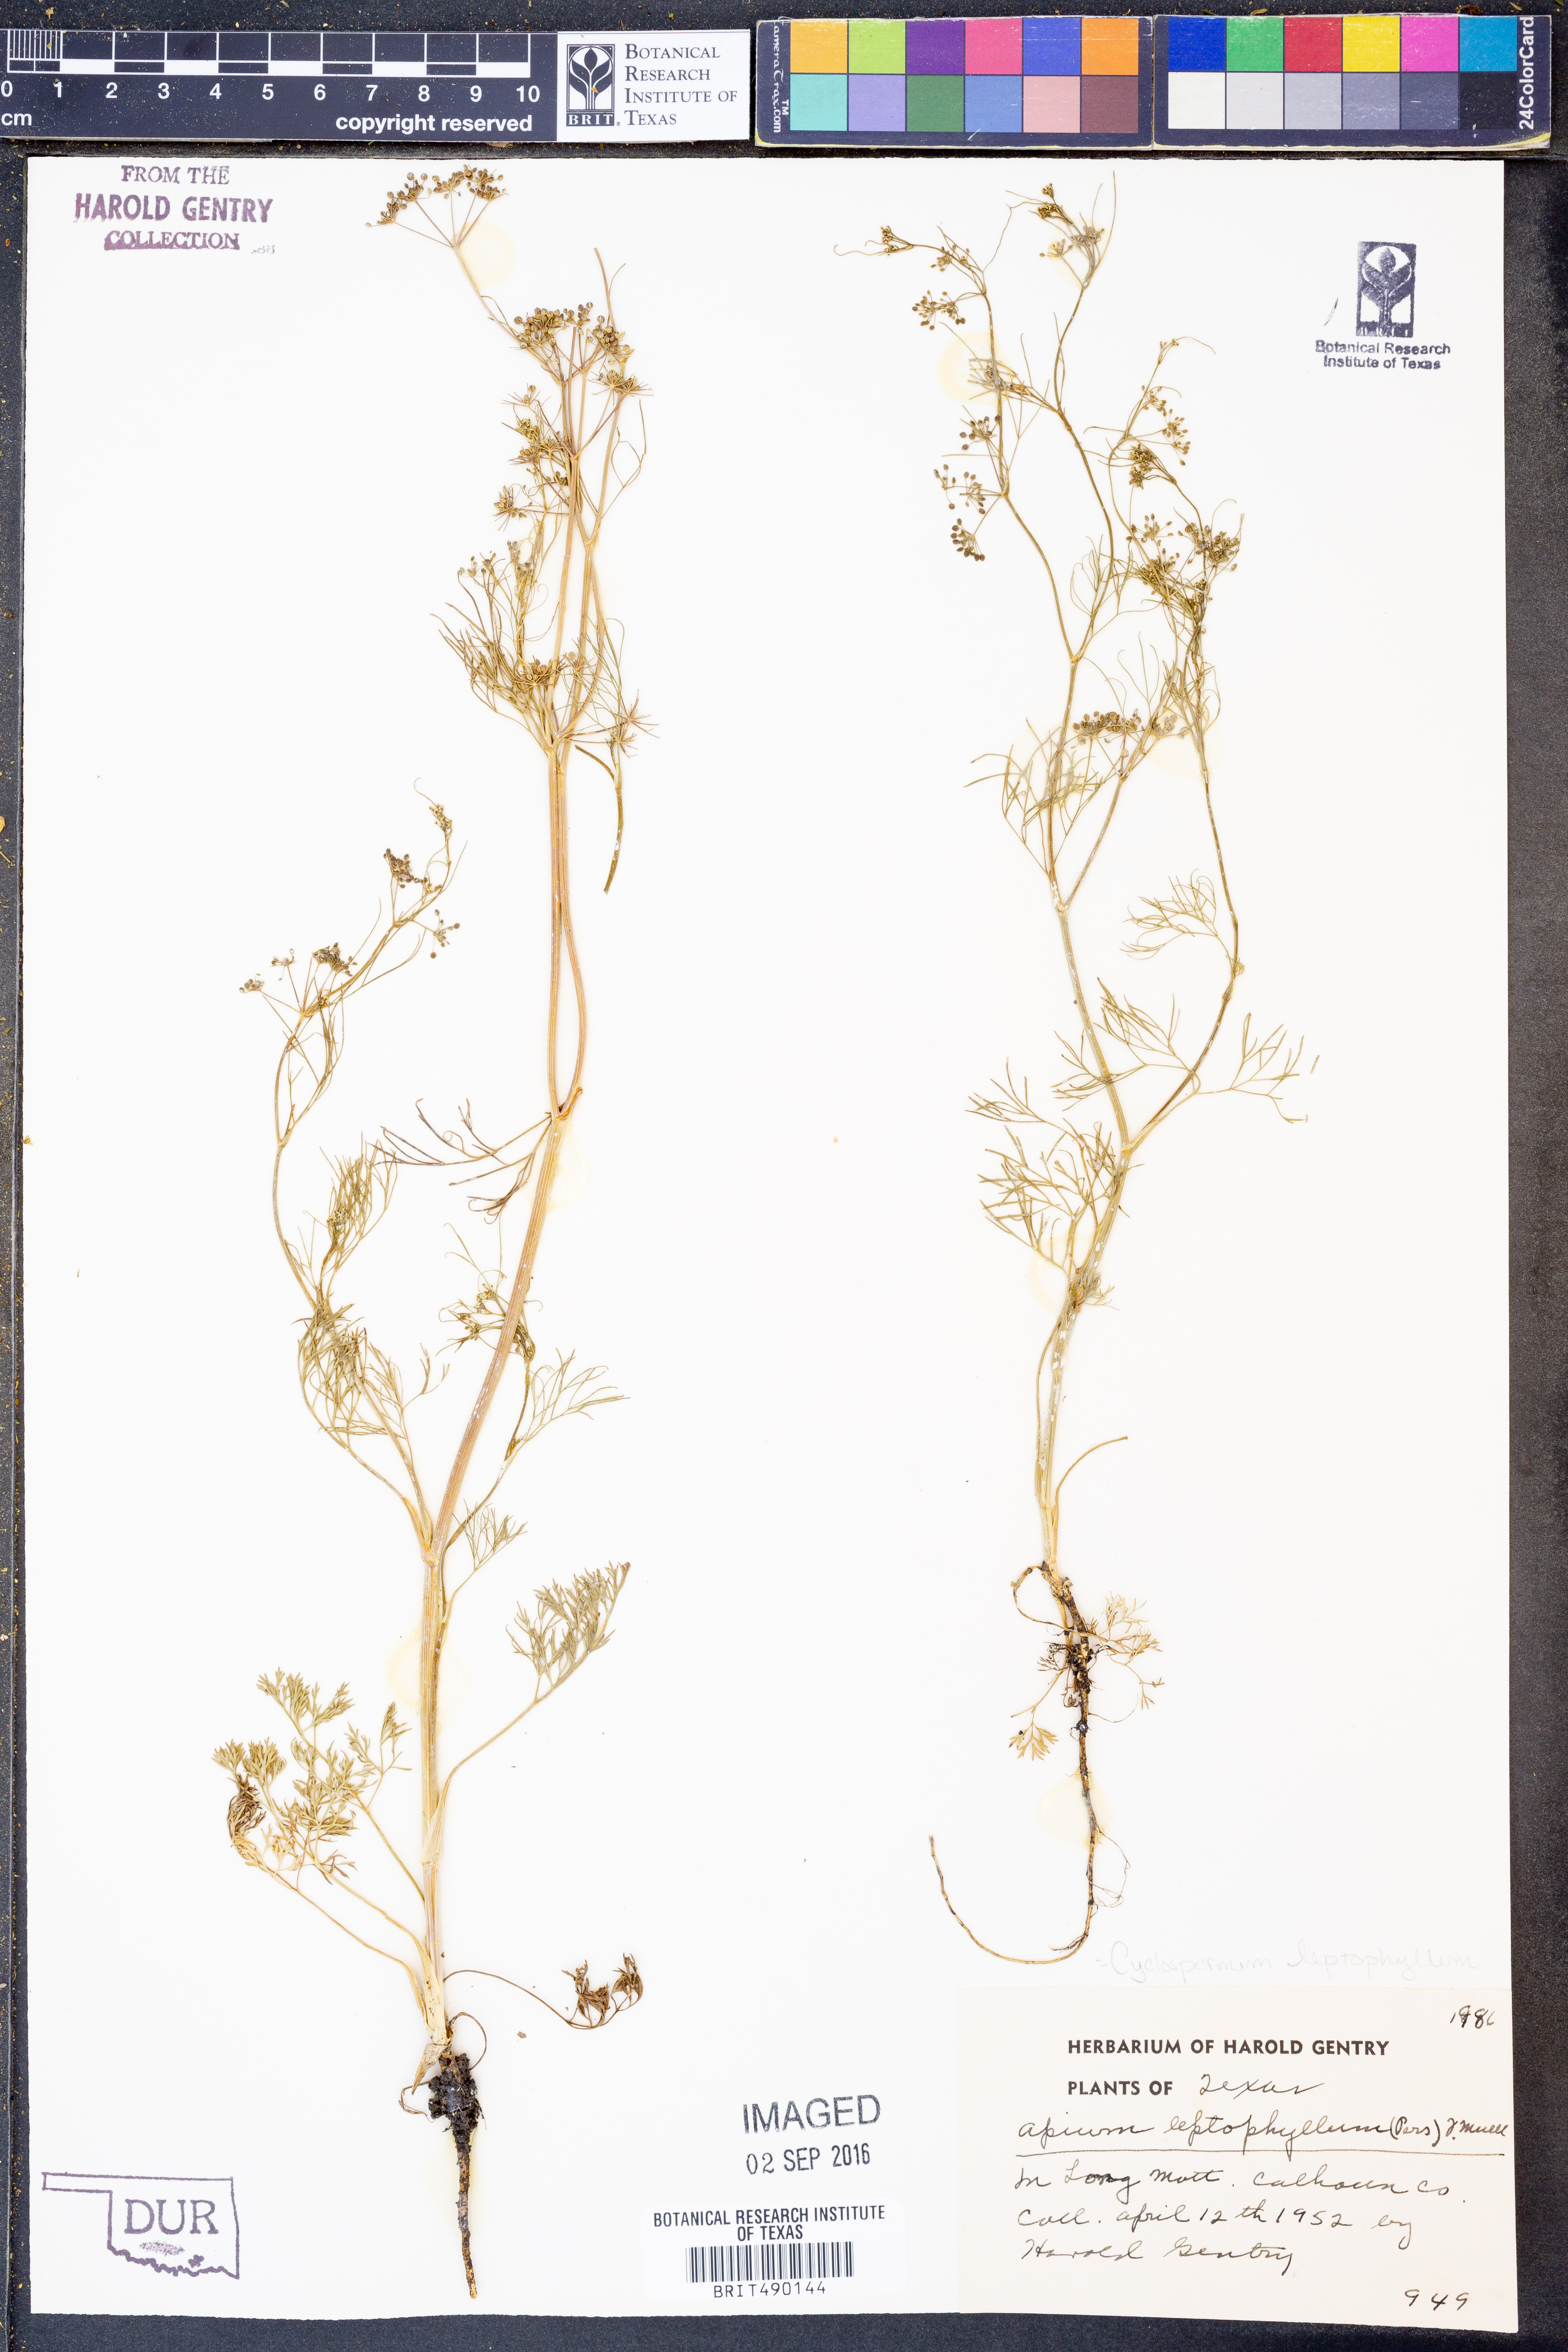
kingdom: Plantae
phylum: Tracheophyta
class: Magnoliopsida
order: Apiales
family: Apiaceae
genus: Cyclospermum
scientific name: Cyclospermum leptophyllum
